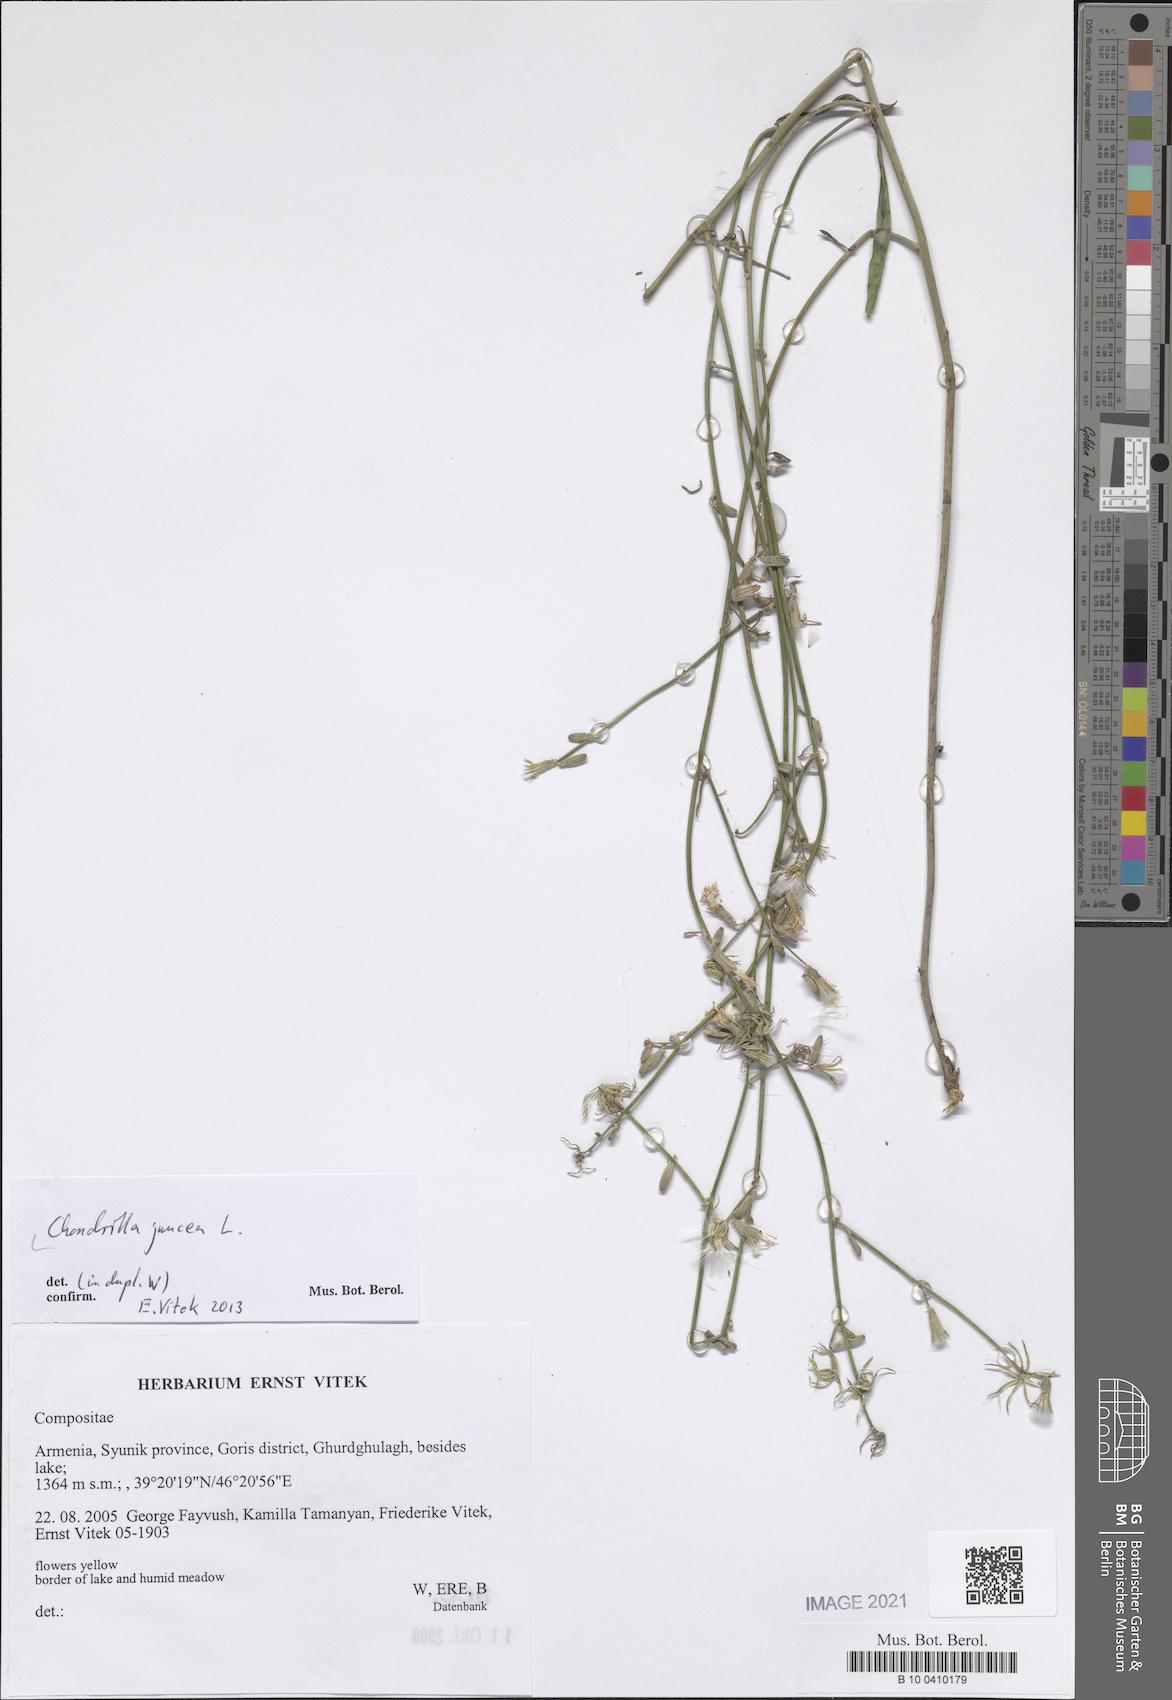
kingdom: Plantae
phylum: Tracheophyta
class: Magnoliopsida
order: Asterales
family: Asteraceae
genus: Chondrilla
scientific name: Chondrilla juncea
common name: Skeleton weed
